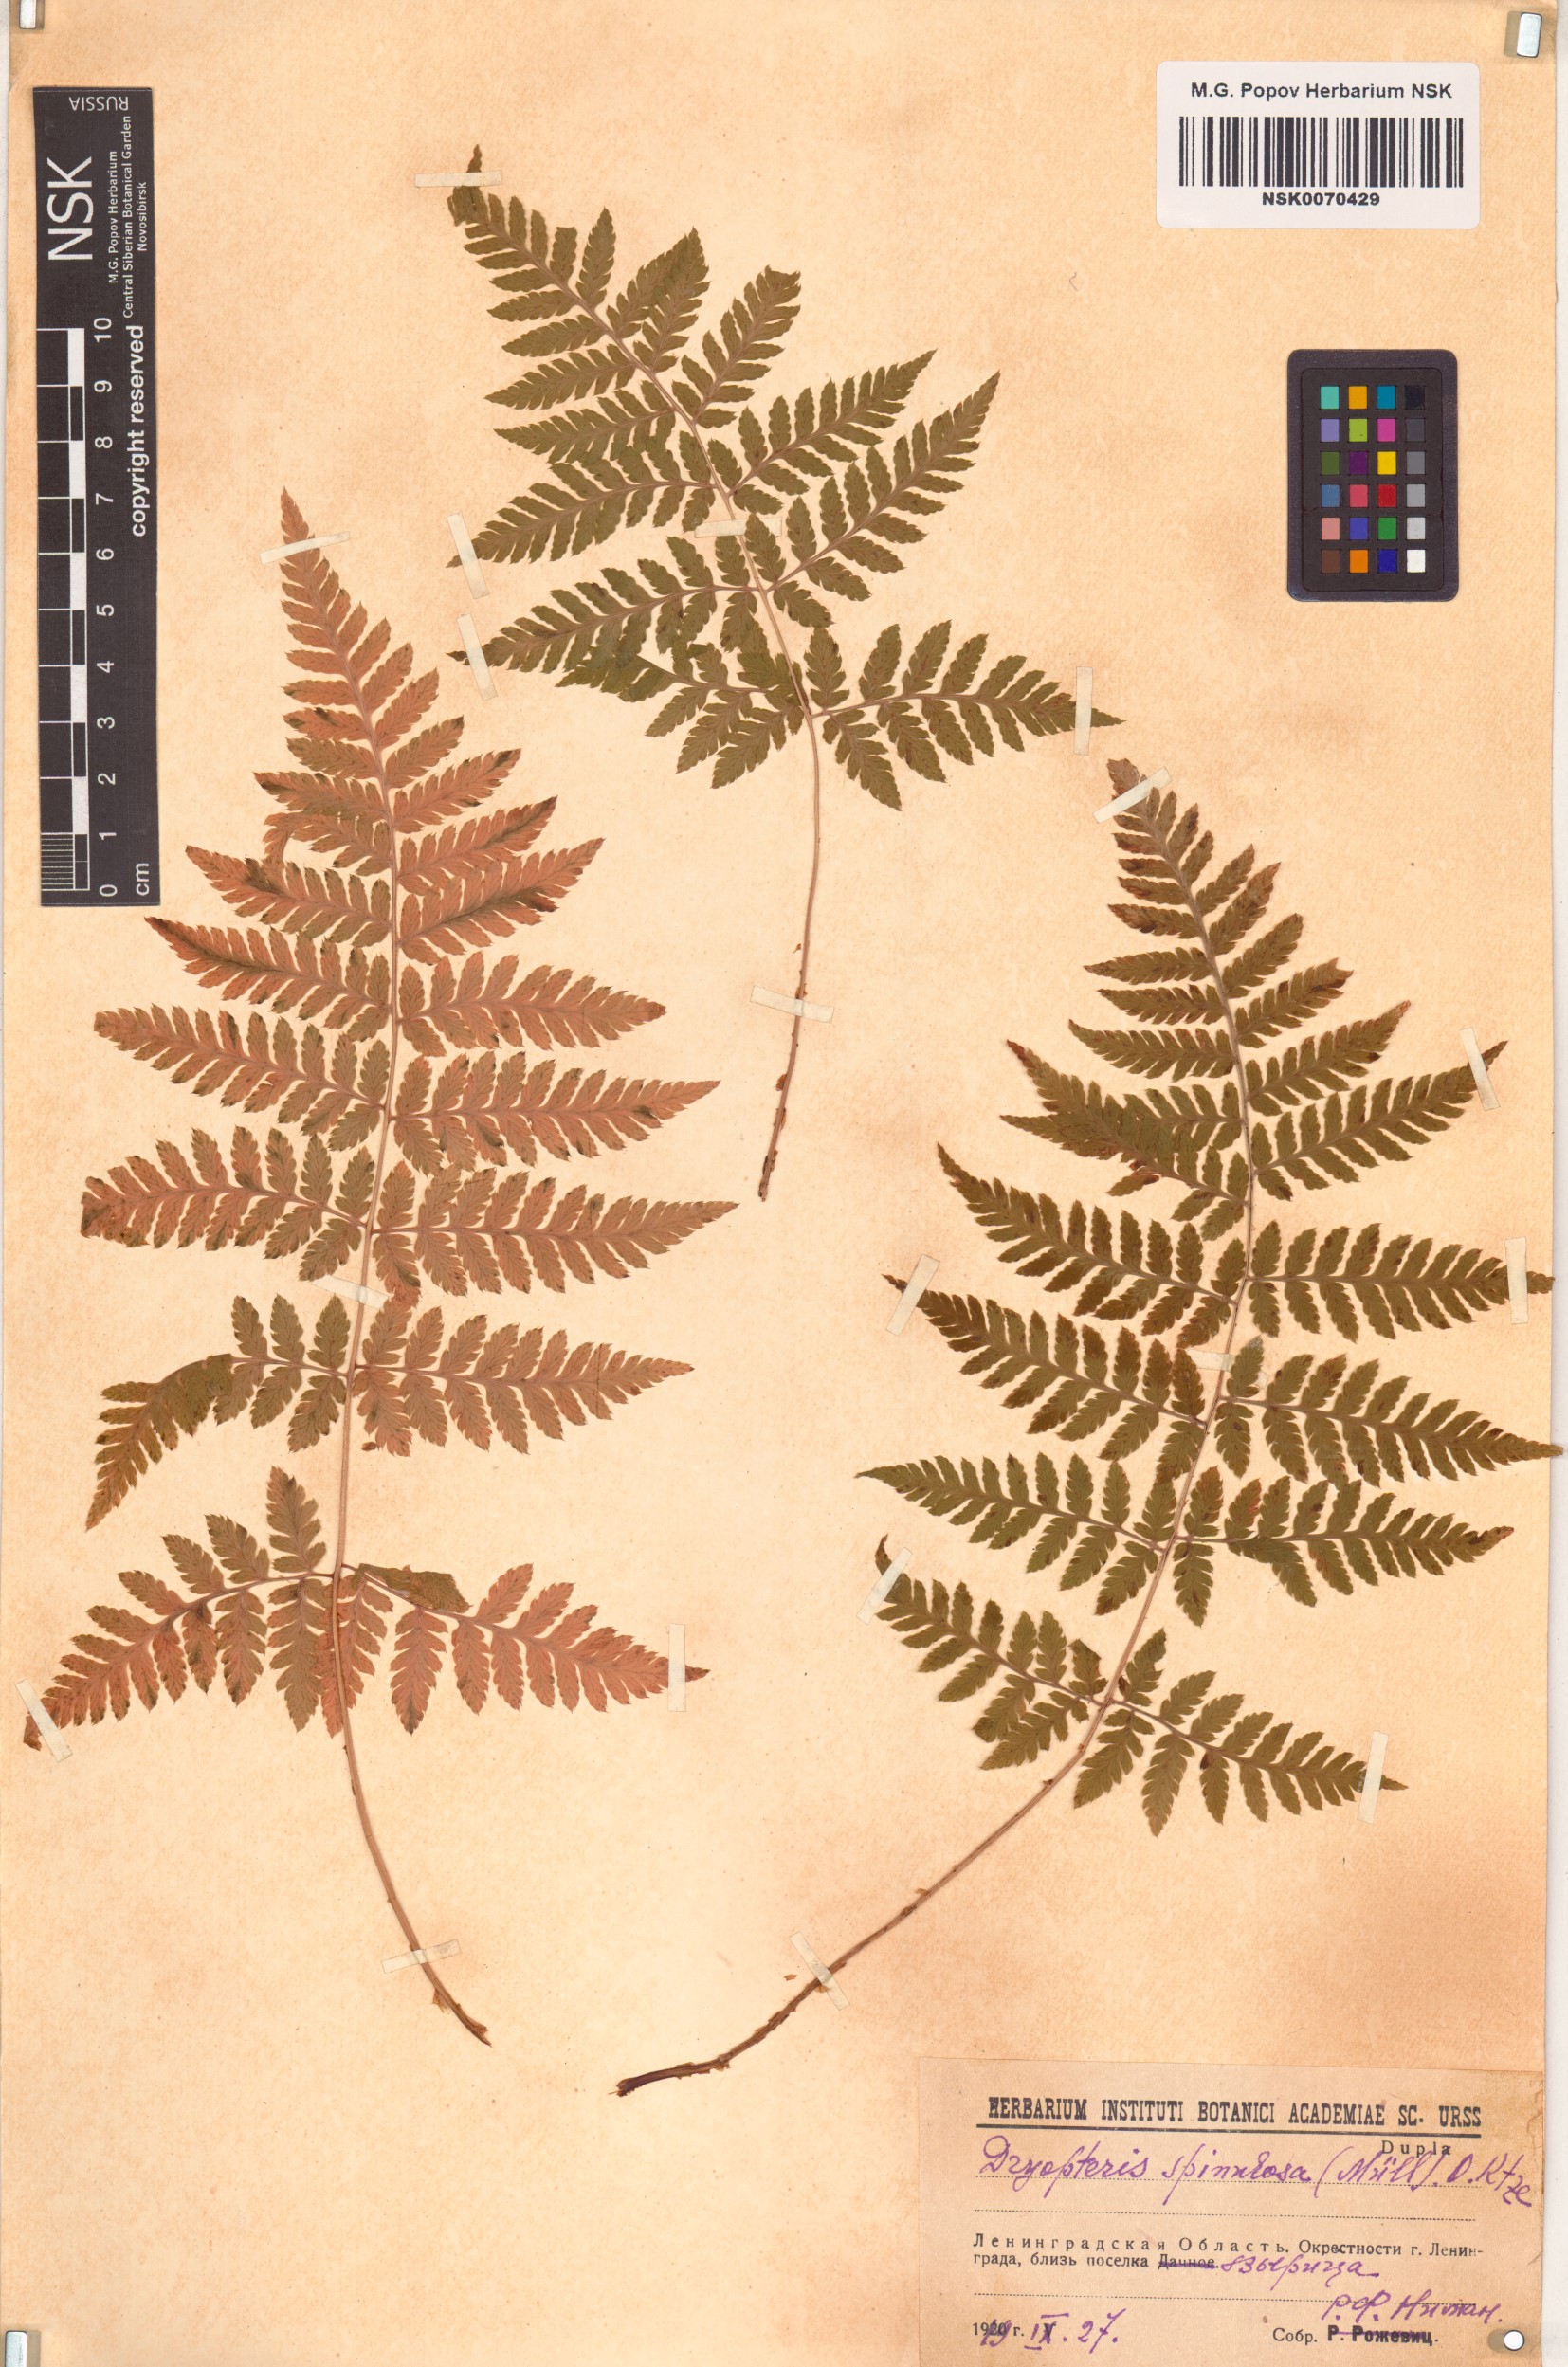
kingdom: Plantae
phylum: Tracheophyta
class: Polypodiopsida
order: Polypodiales
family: Dryopteridaceae
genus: Dryopteris
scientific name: Dryopteris carthusiana
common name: Narrow buckler-fern
